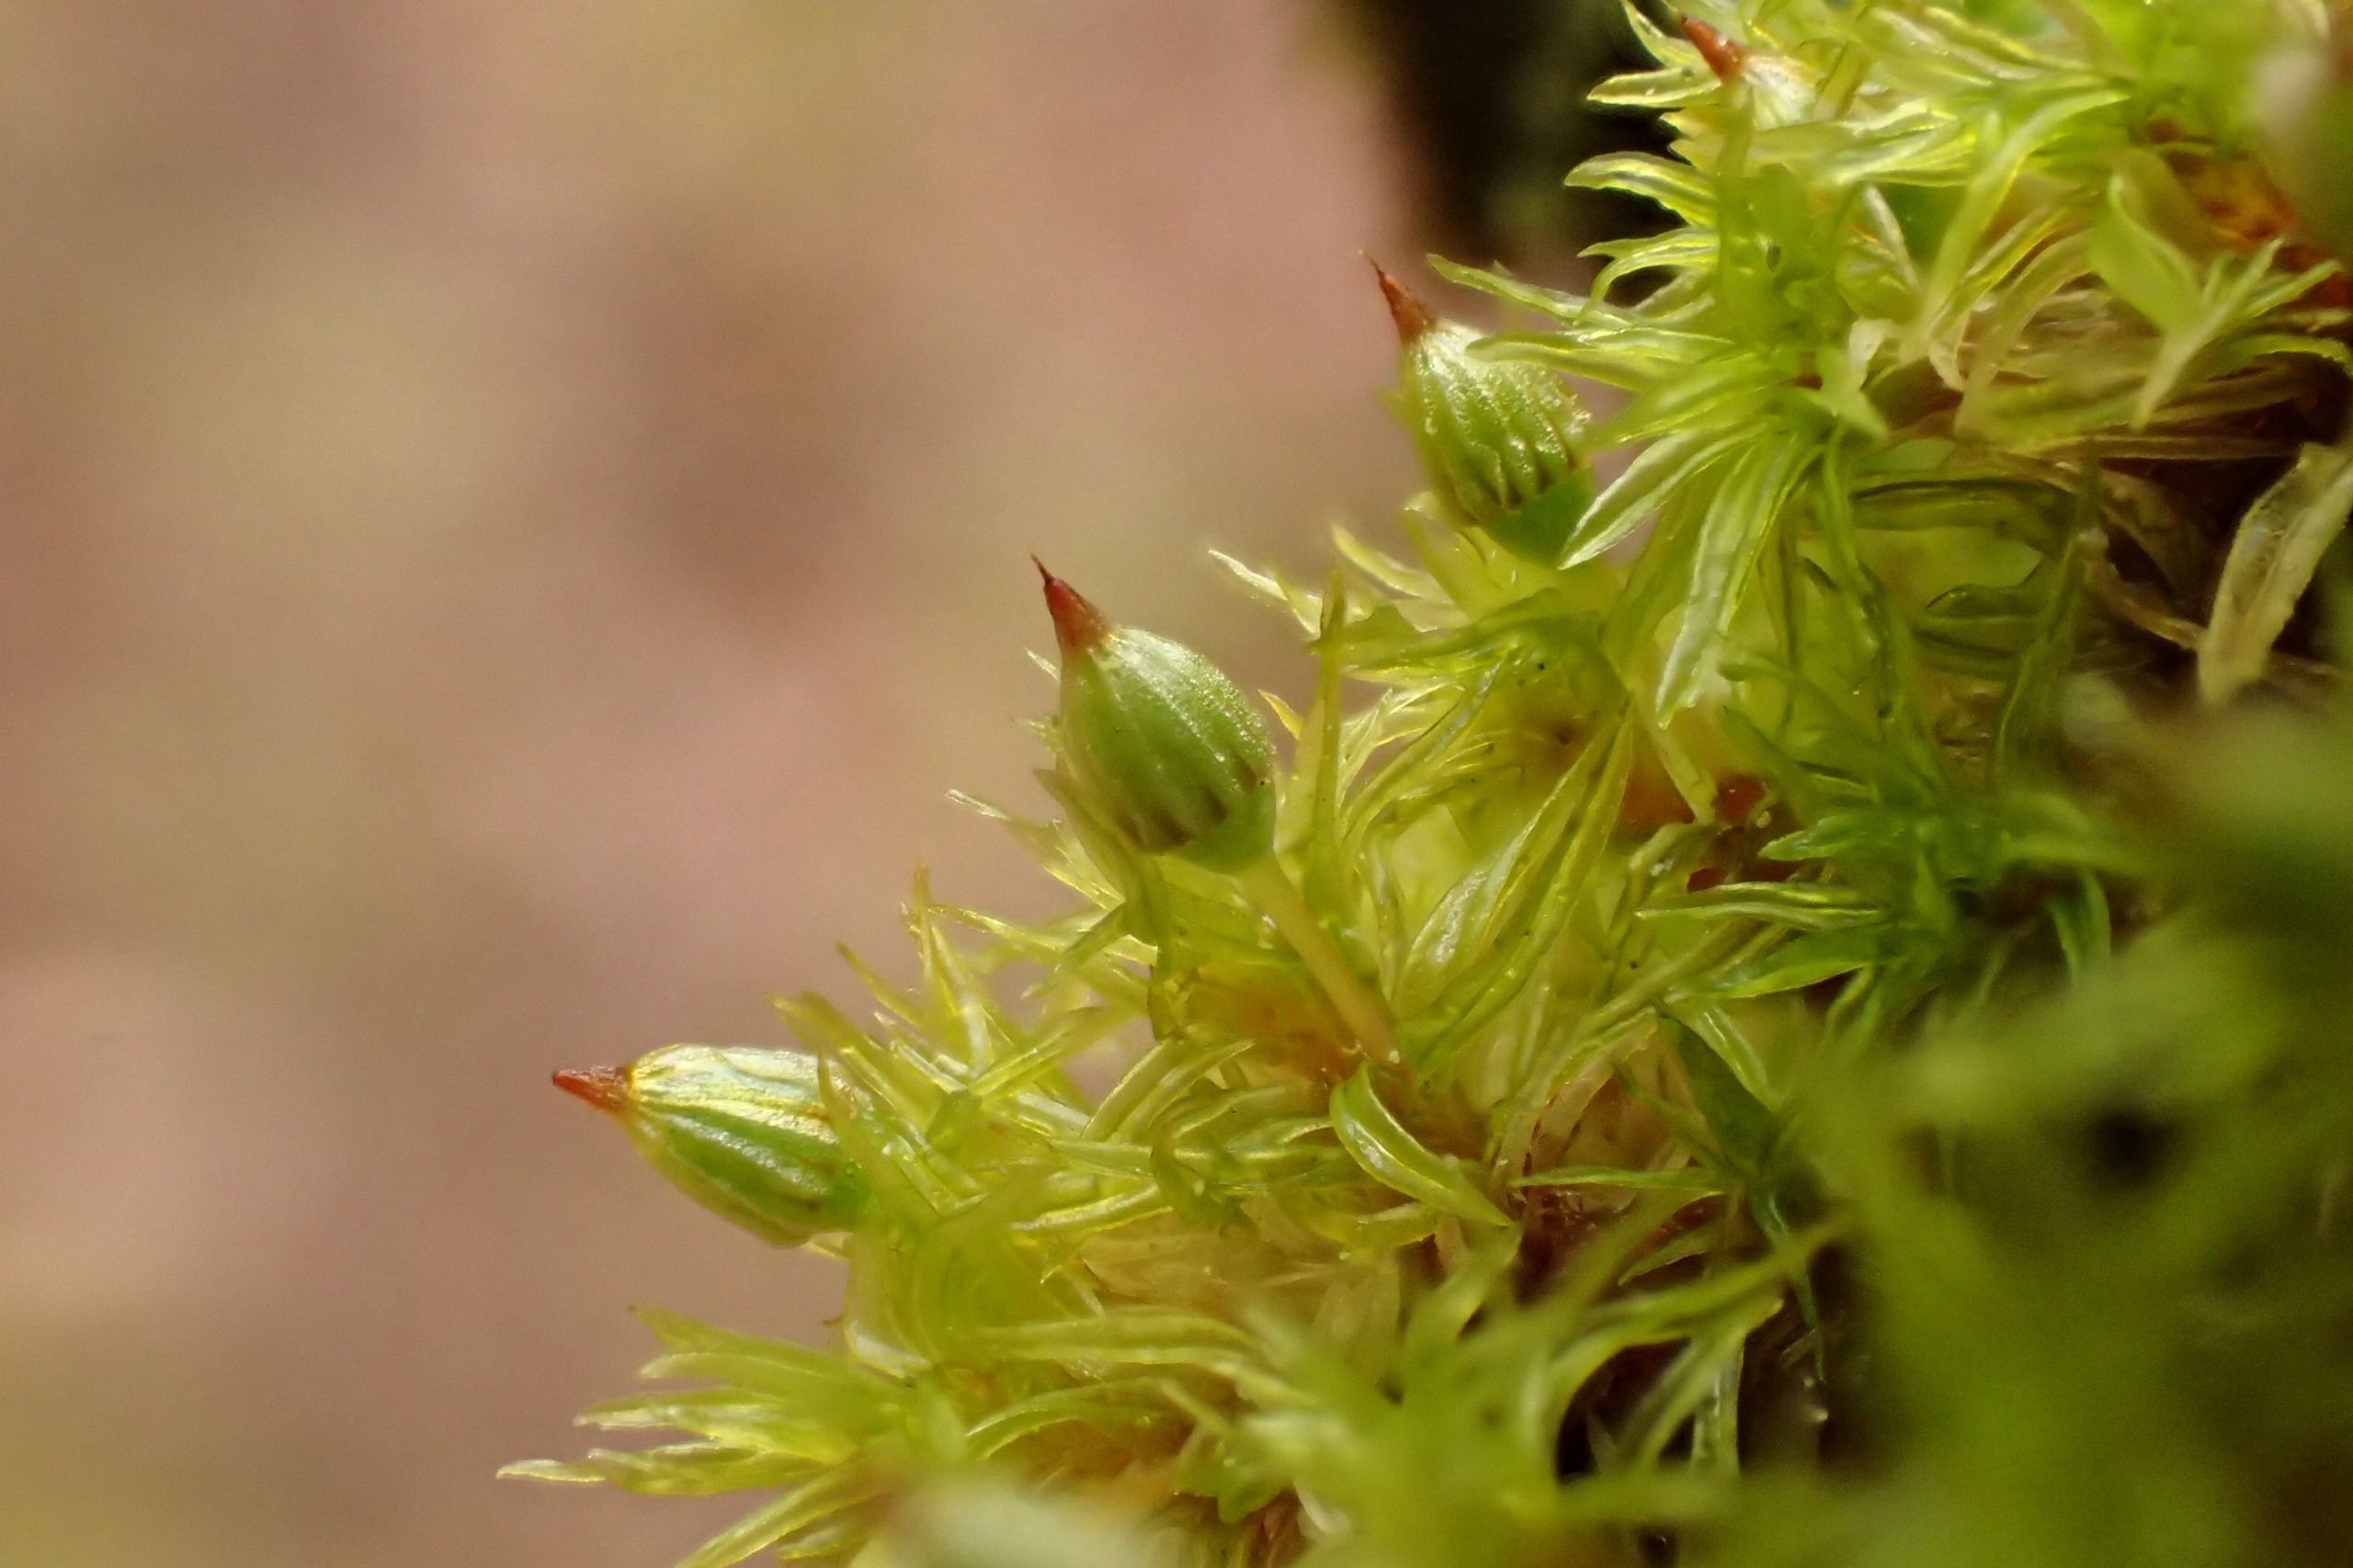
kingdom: Plantae
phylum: Bryophyta
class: Bryopsida
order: Orthotrichales
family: Orthotrichaceae
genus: Orthotrichum
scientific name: Orthotrichum pulchellum
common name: Smuk furehætte
